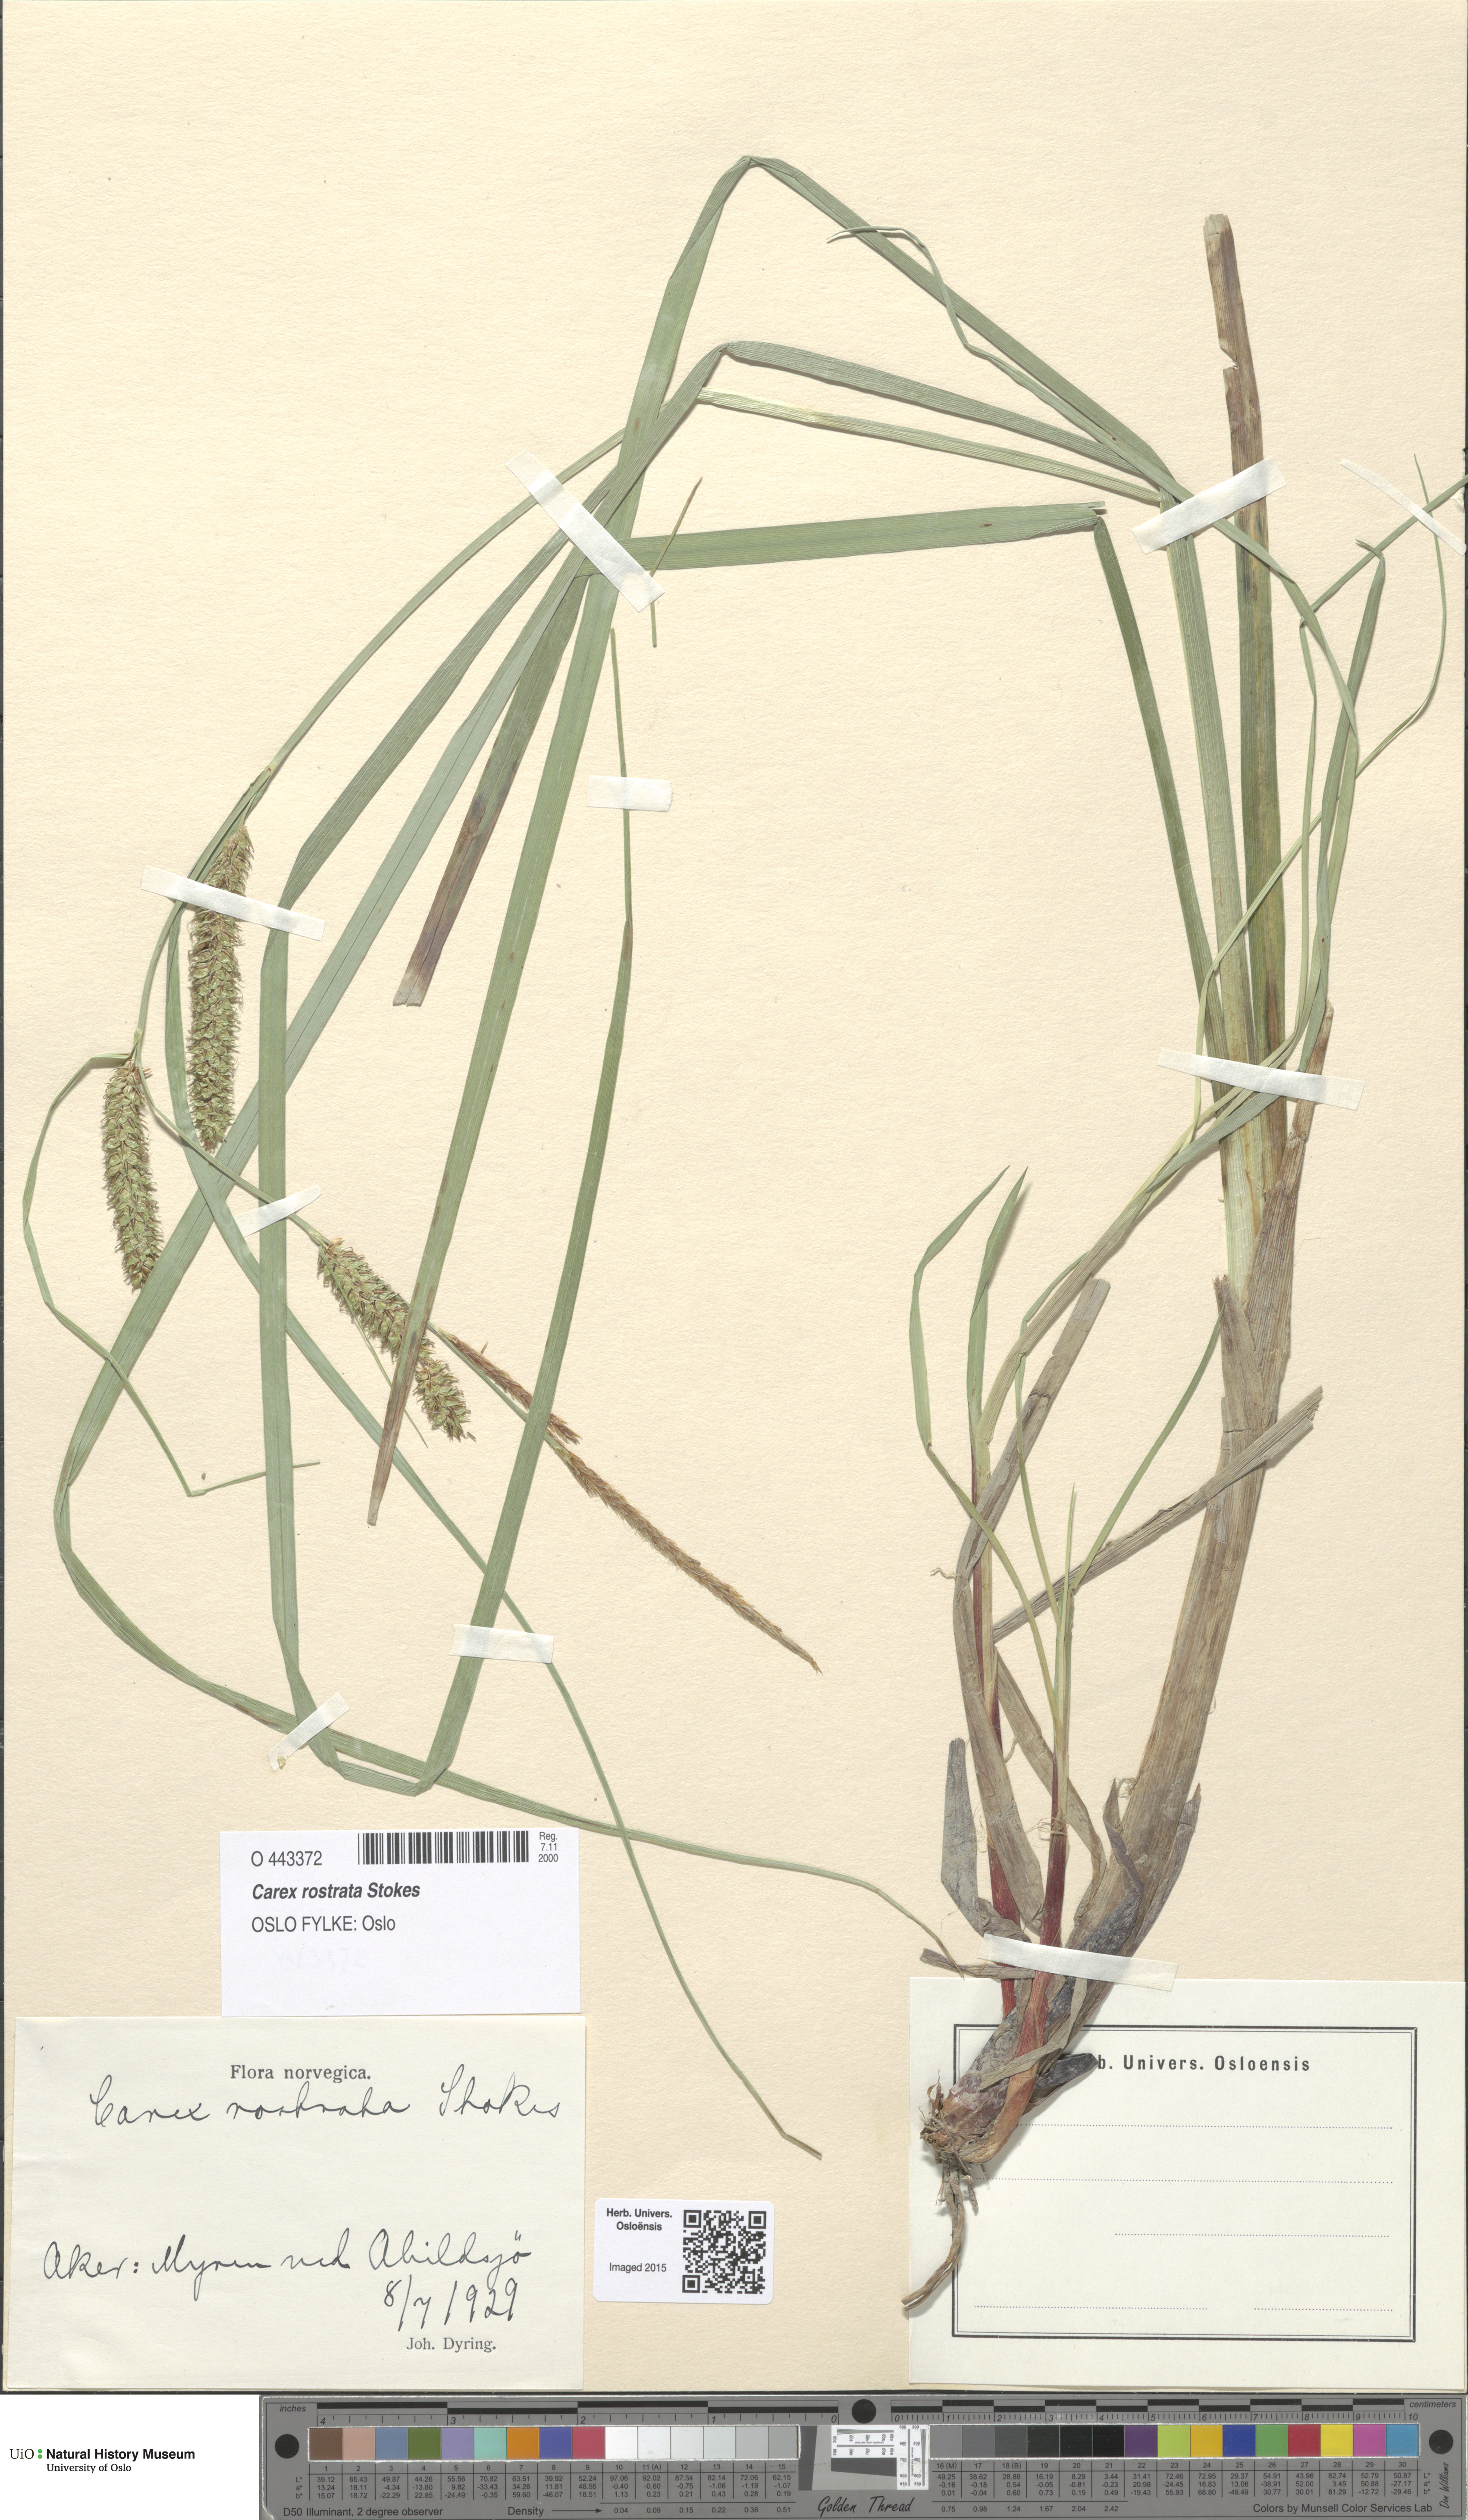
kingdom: Plantae
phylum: Tracheophyta
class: Liliopsida
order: Poales
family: Cyperaceae
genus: Carex
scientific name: Carex rostrata
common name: Bottle sedge
